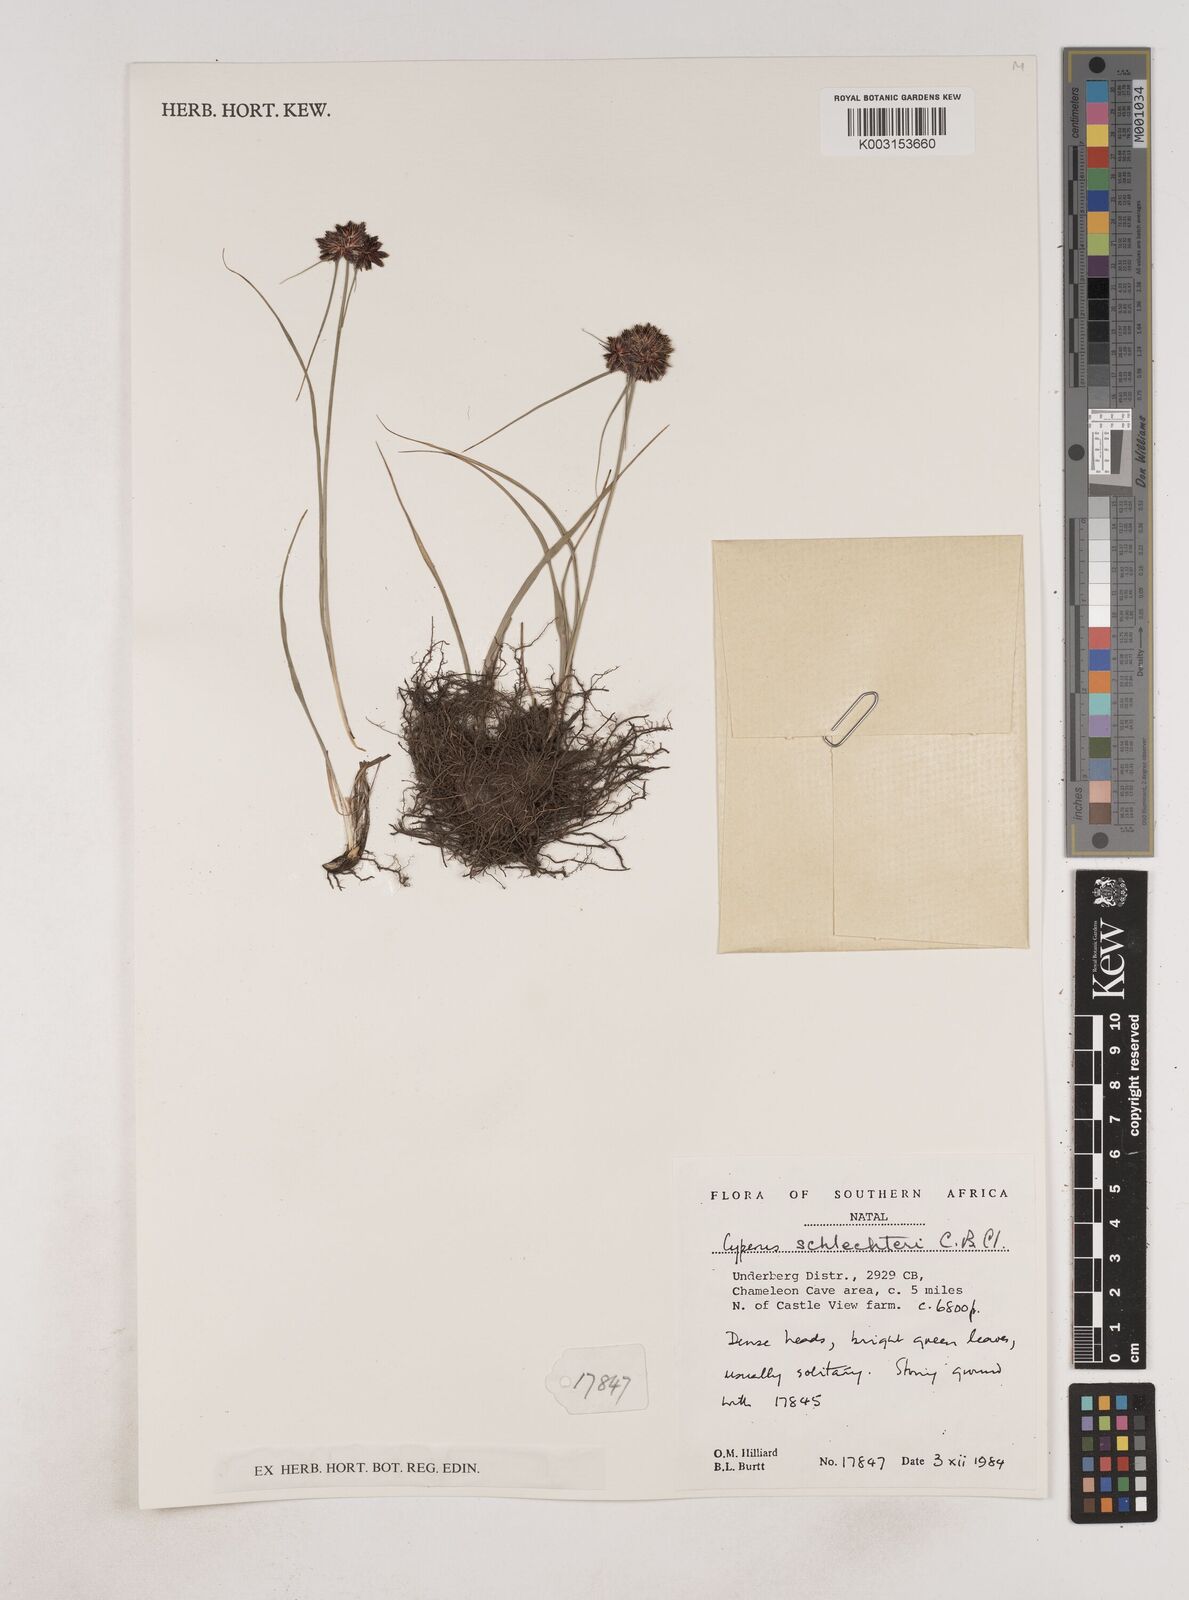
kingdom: Plantae
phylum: Tracheophyta
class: Liliopsida
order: Poales
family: Cyperaceae
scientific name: Cyperaceae
